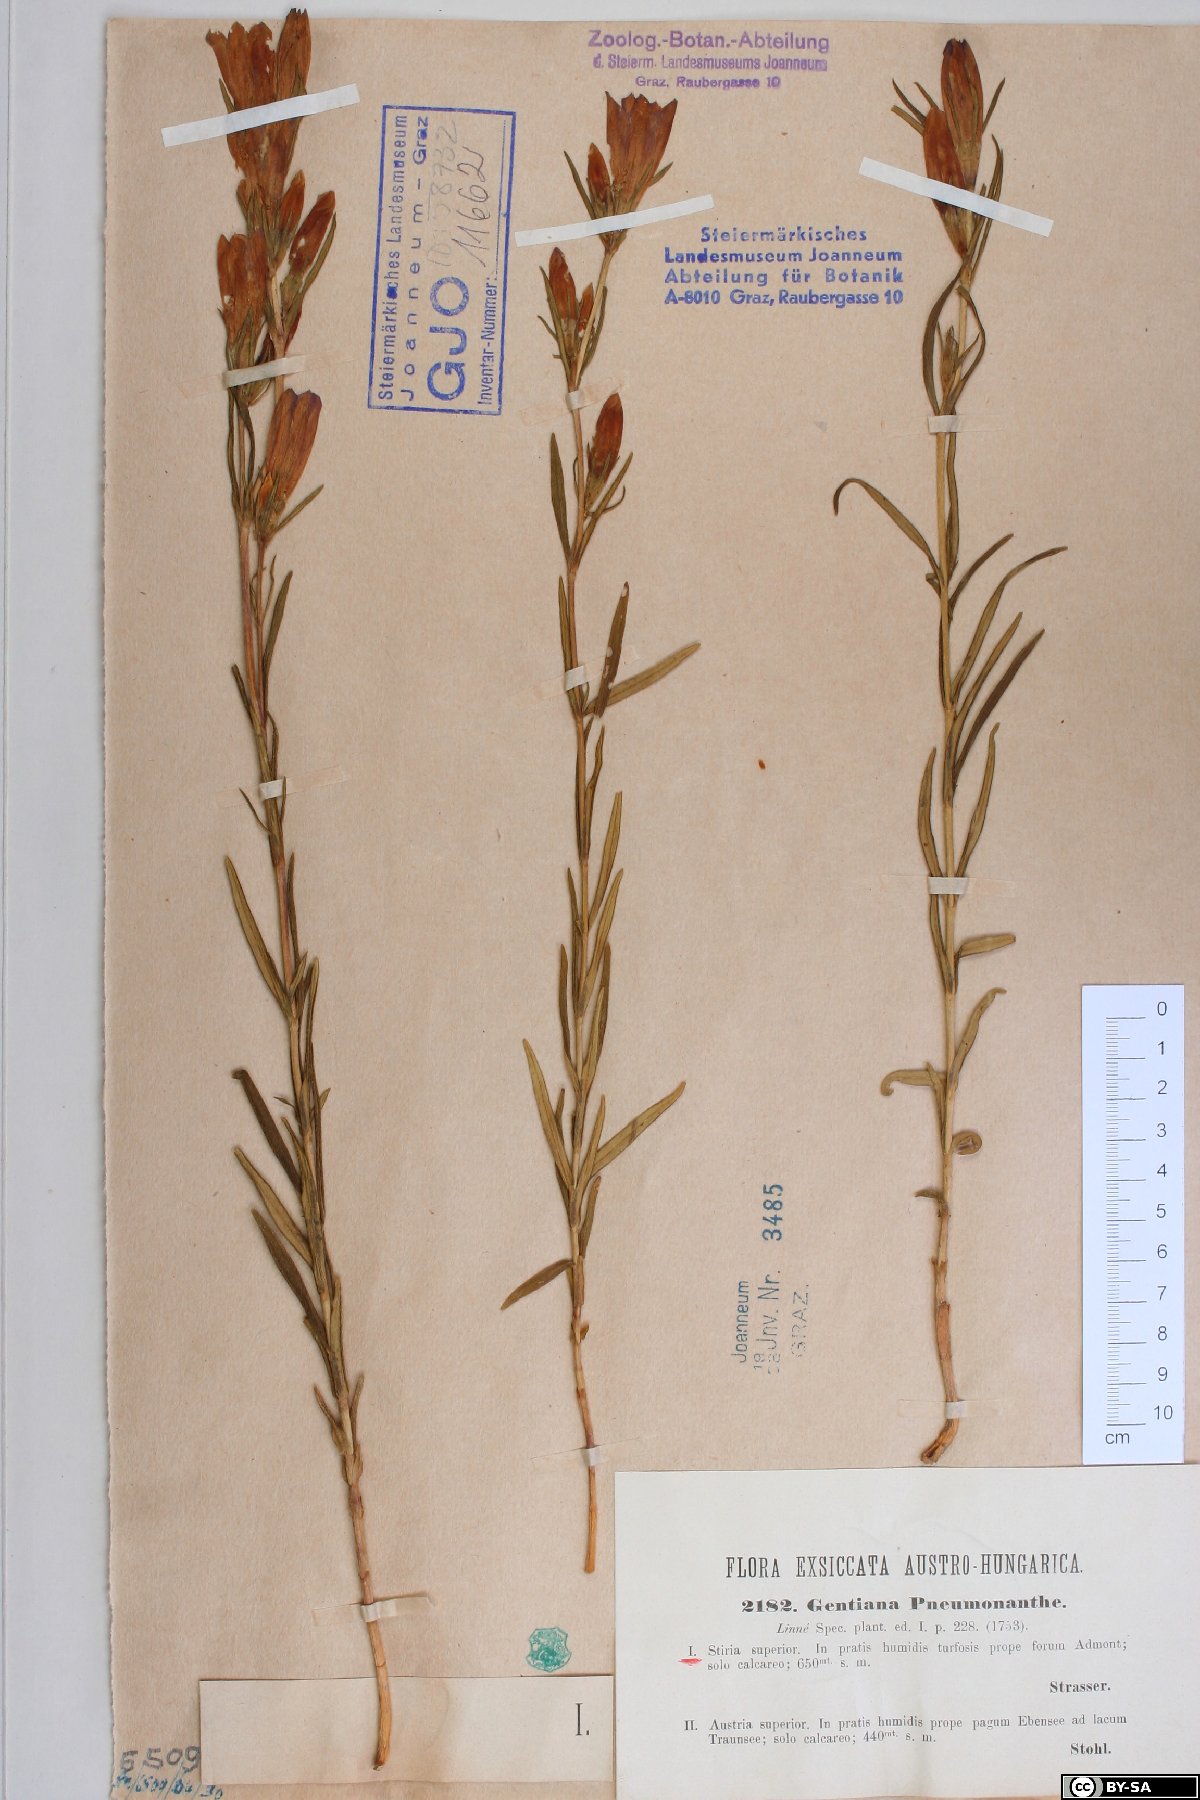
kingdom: Plantae
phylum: Tracheophyta
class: Magnoliopsida
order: Gentianales
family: Gentianaceae
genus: Gentiana
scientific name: Gentiana pneumonanthe
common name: Marsh gentian
